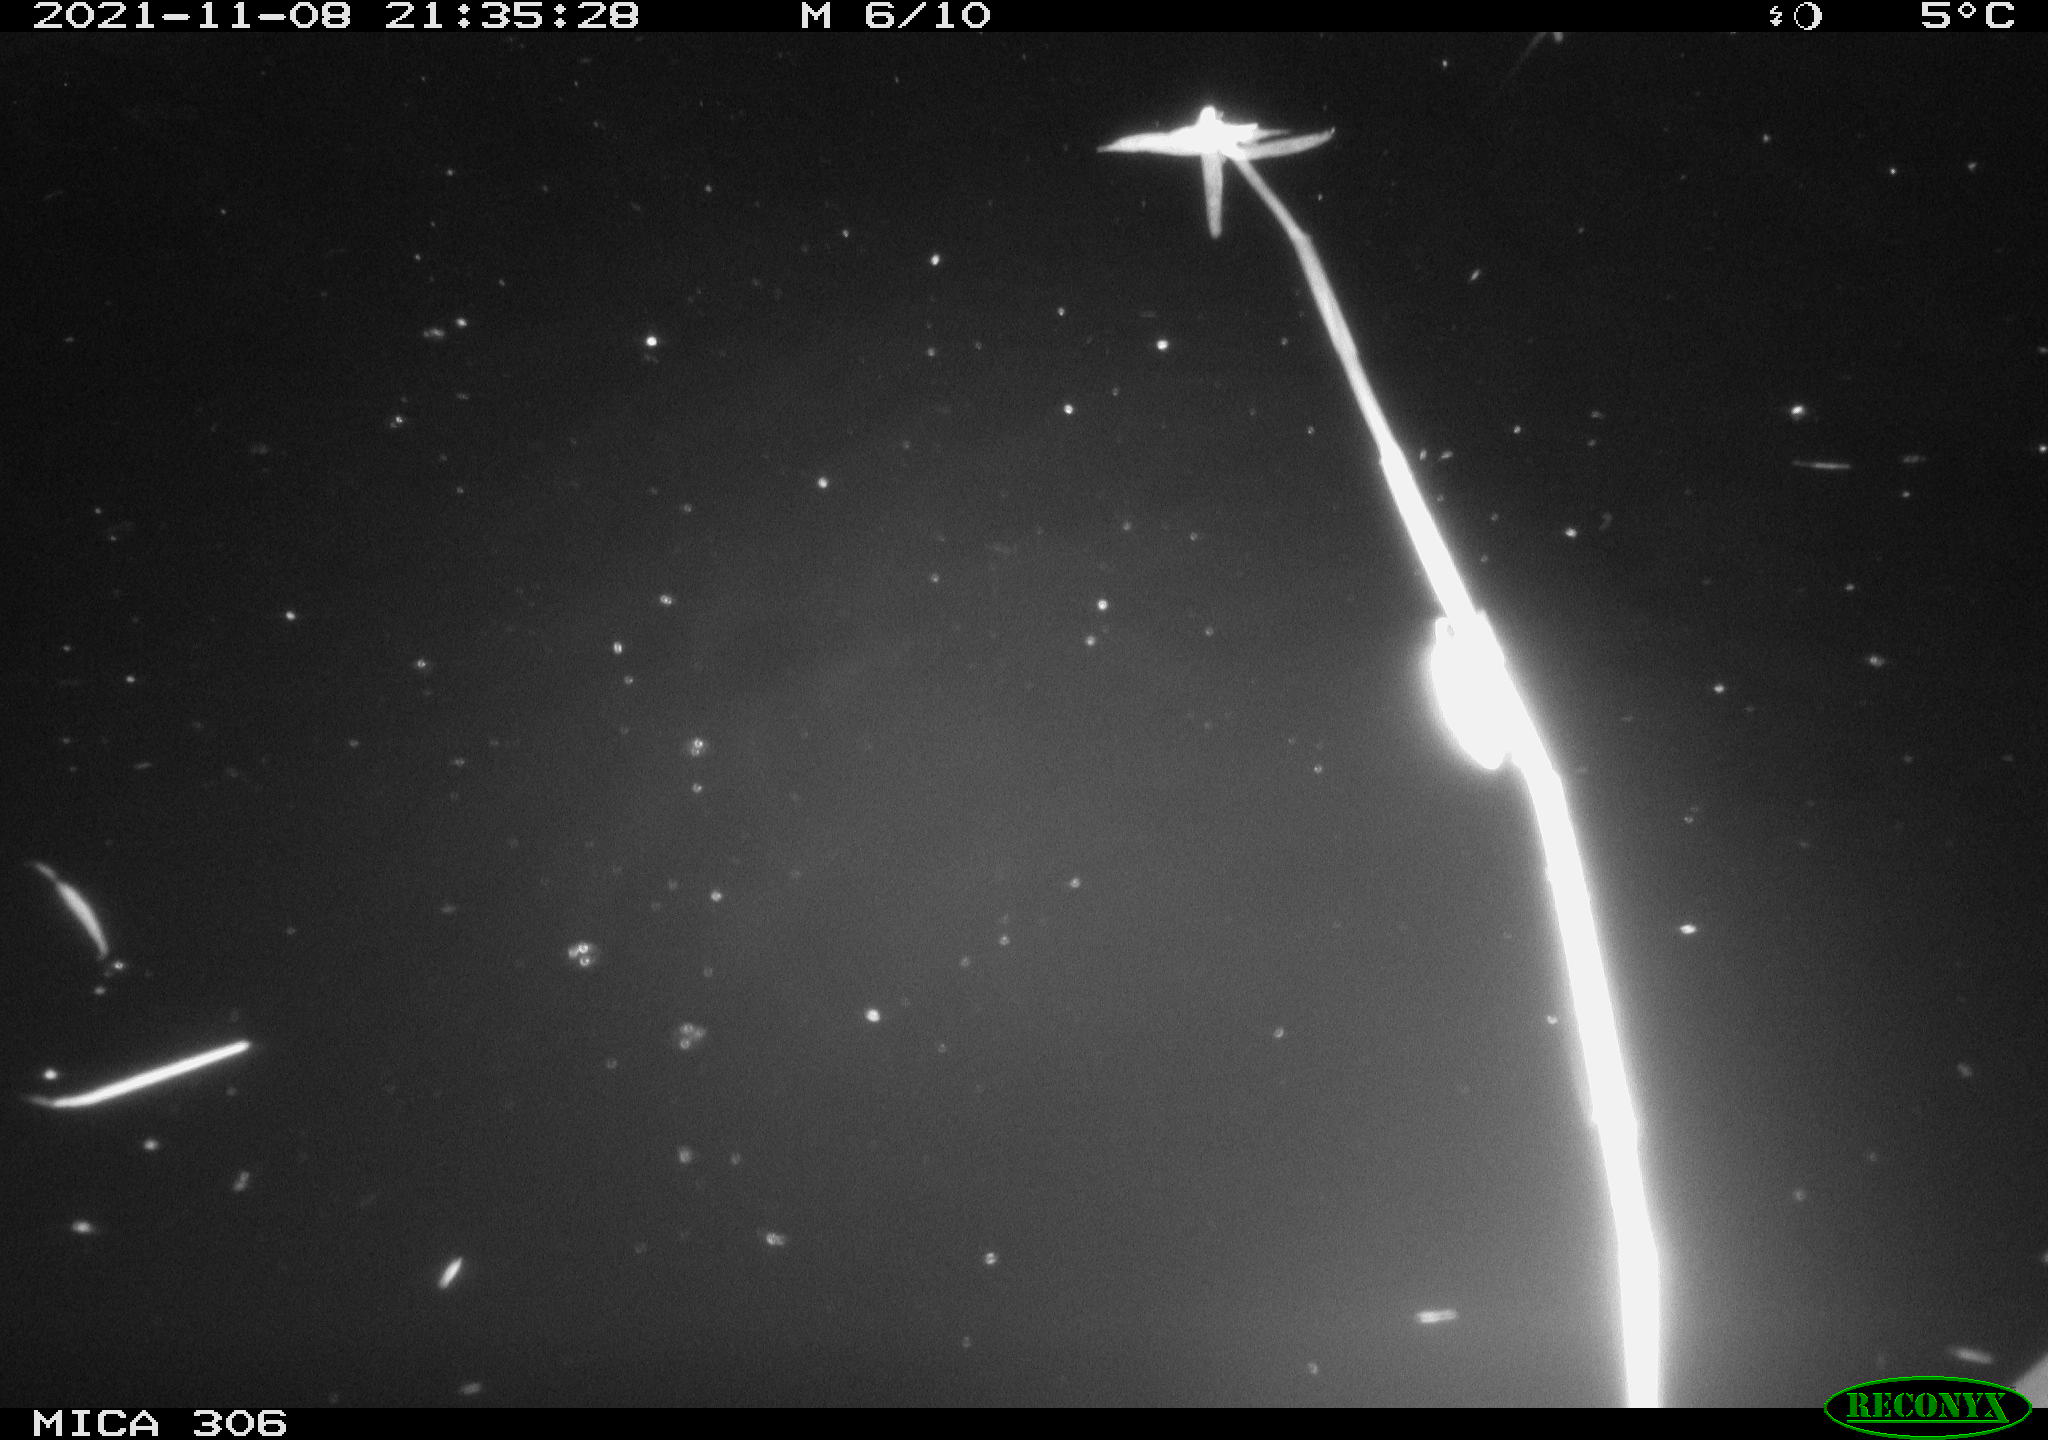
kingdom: Animalia
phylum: Chordata
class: Mammalia
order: Rodentia
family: Cricetidae
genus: Ondatra
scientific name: Ondatra zibethicus
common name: Muskrat
